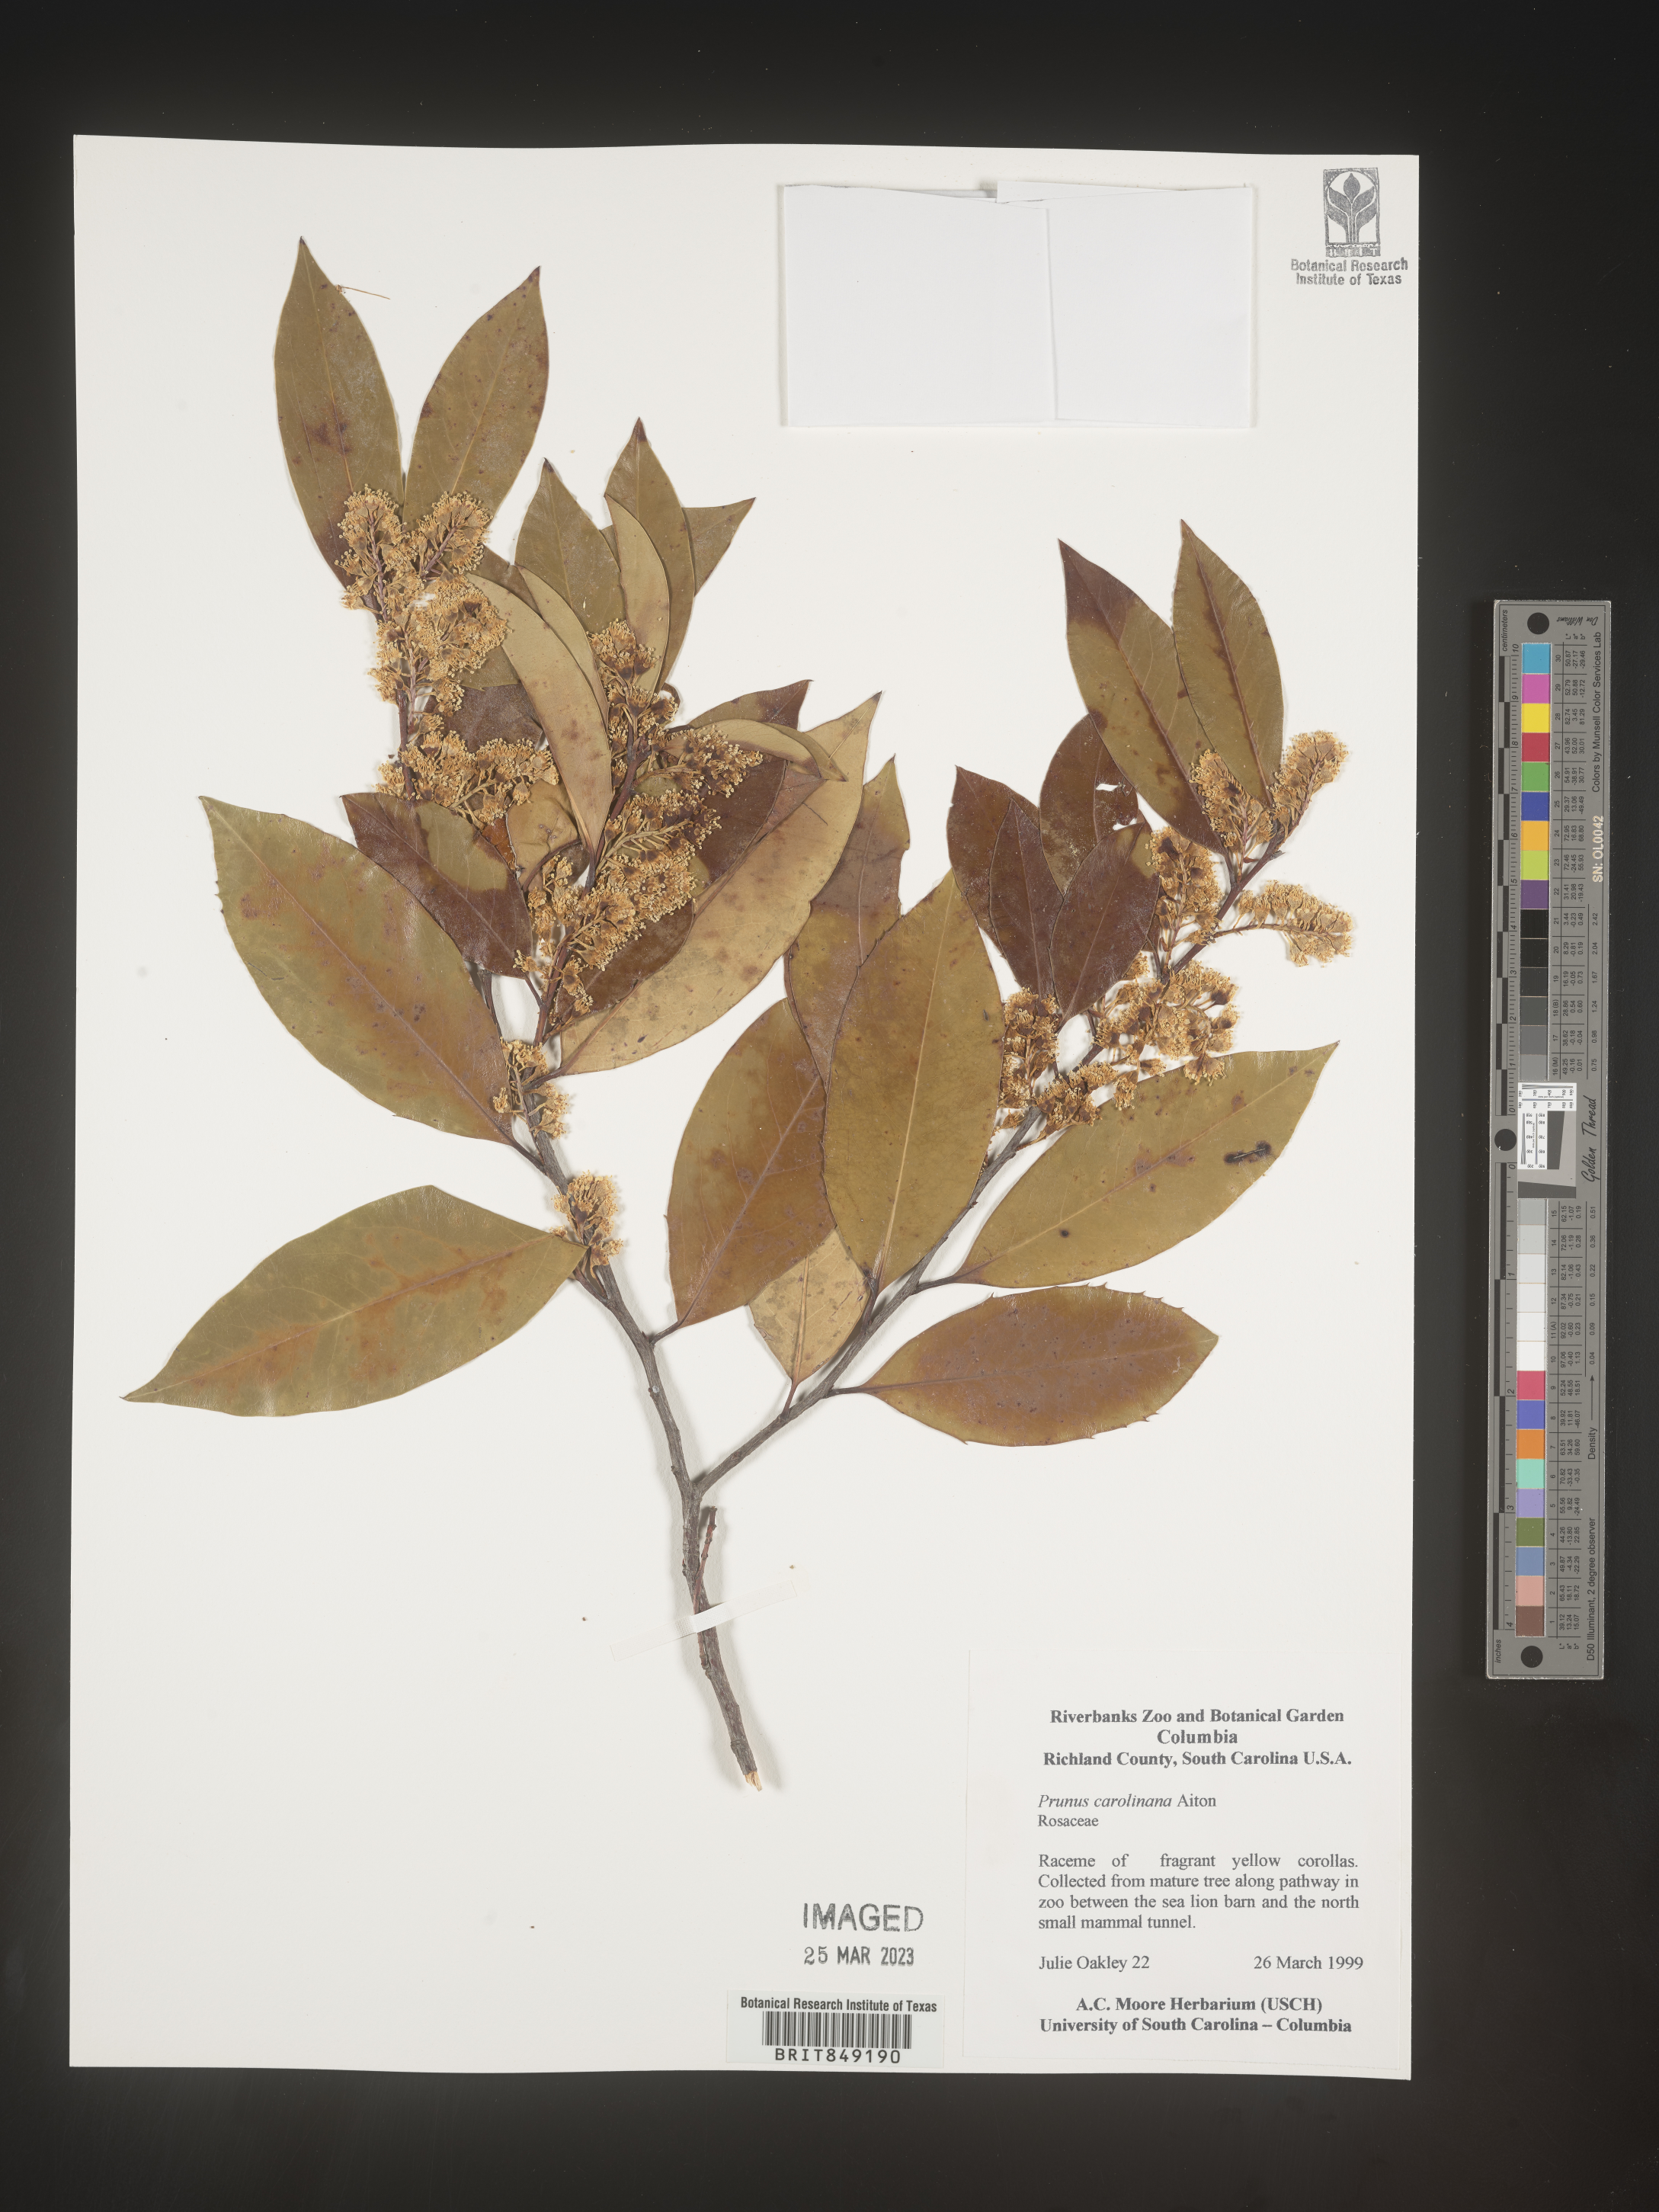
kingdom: Plantae
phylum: Tracheophyta
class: Magnoliopsida
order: Rosales
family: Rosaceae
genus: Prunus
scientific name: Prunus
